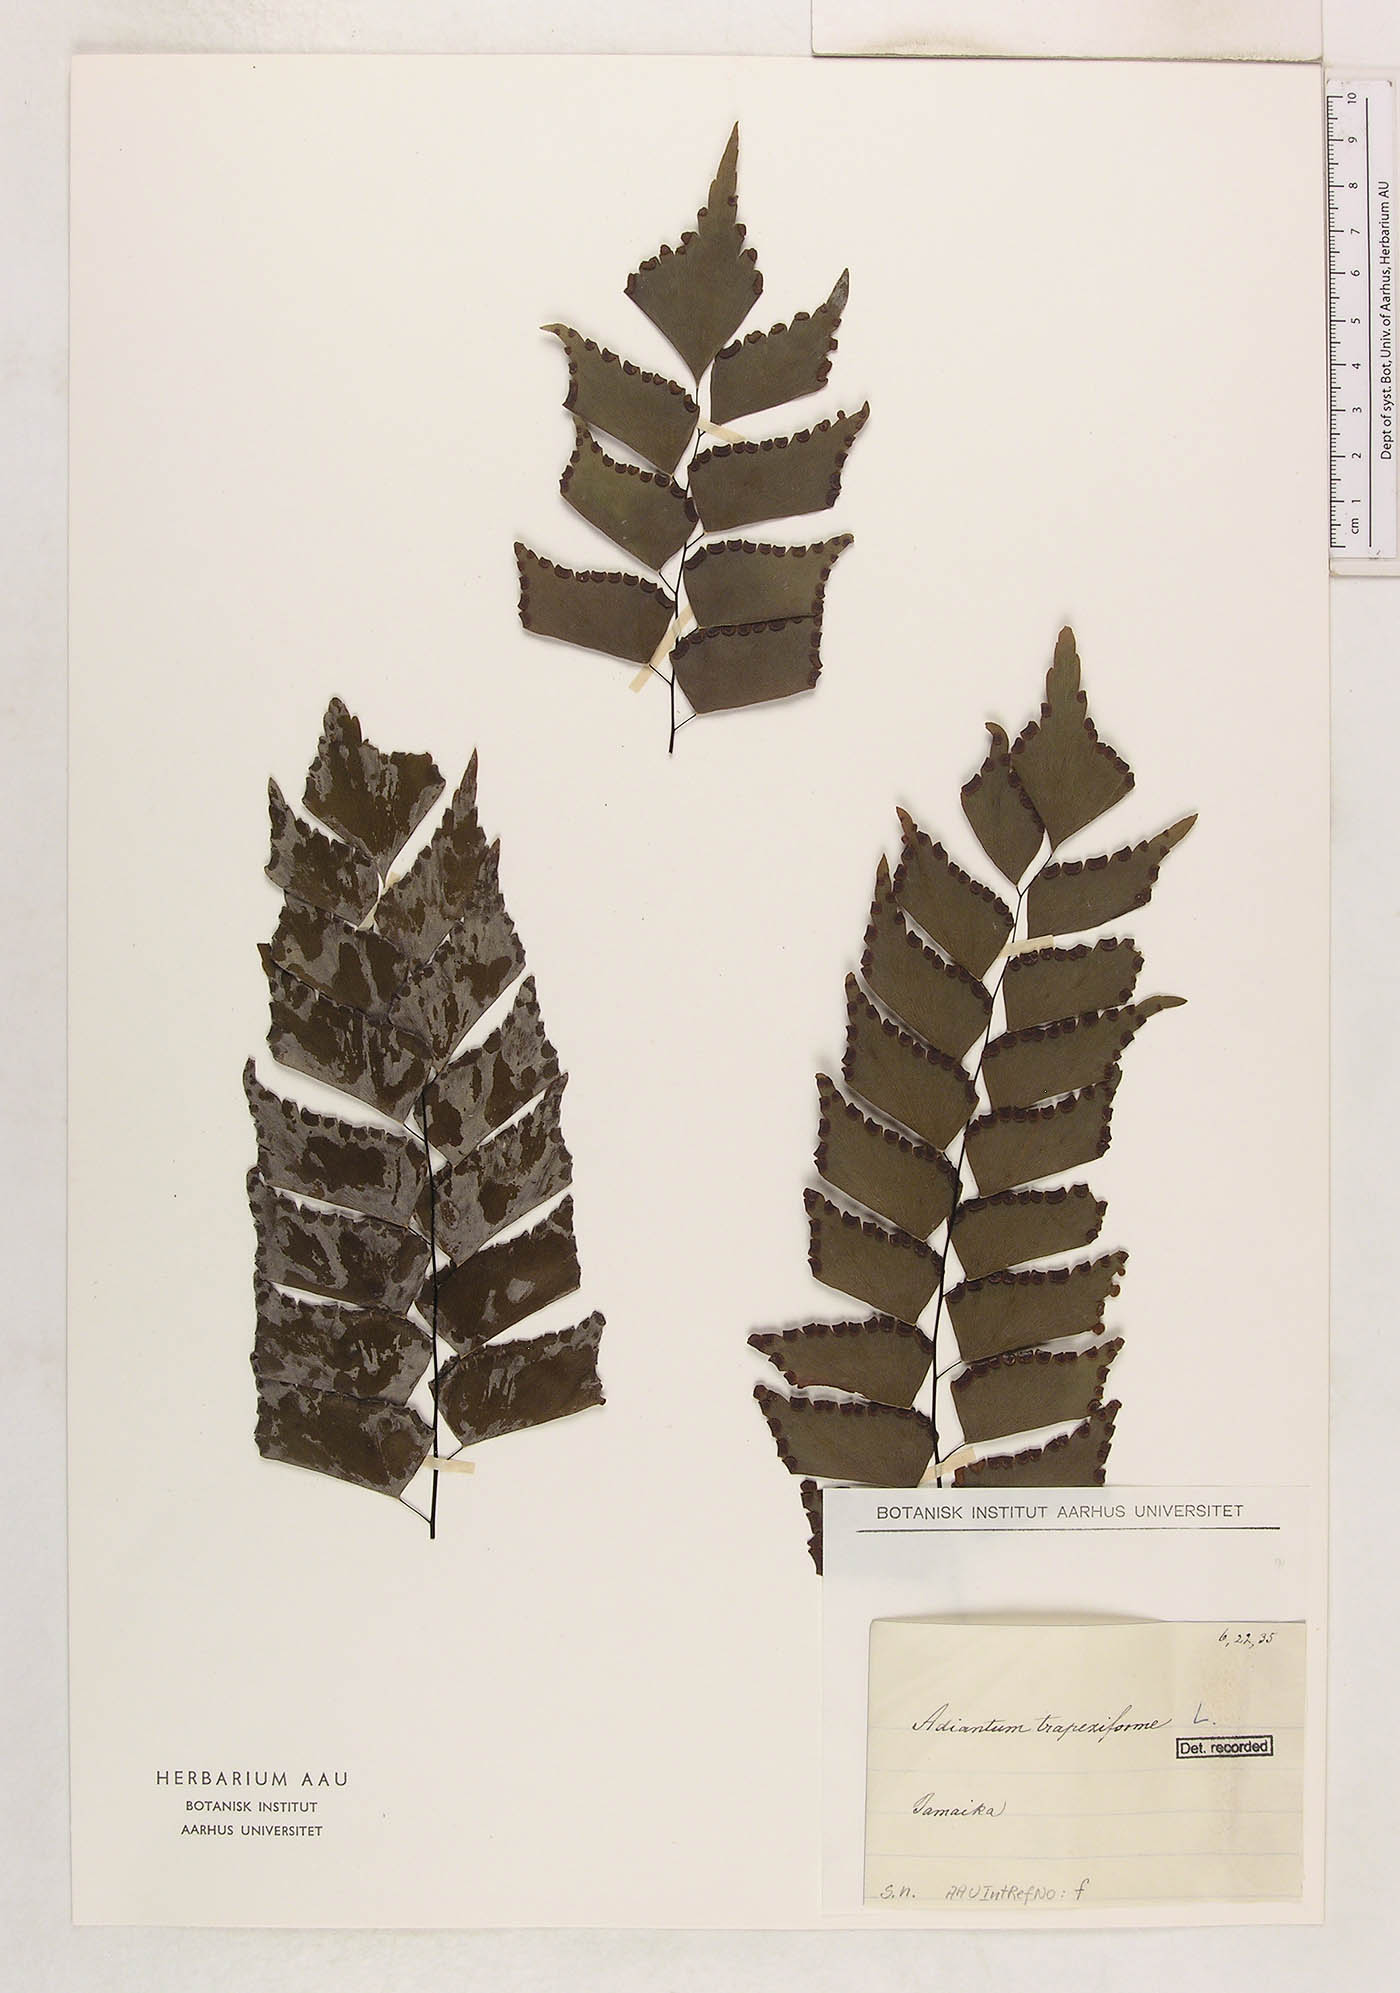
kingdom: Plantae
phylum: Tracheophyta
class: Polypodiopsida
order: Polypodiales
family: Pteridaceae
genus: Adiantum
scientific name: Adiantum trapeziforme
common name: Diamond maidenhair
